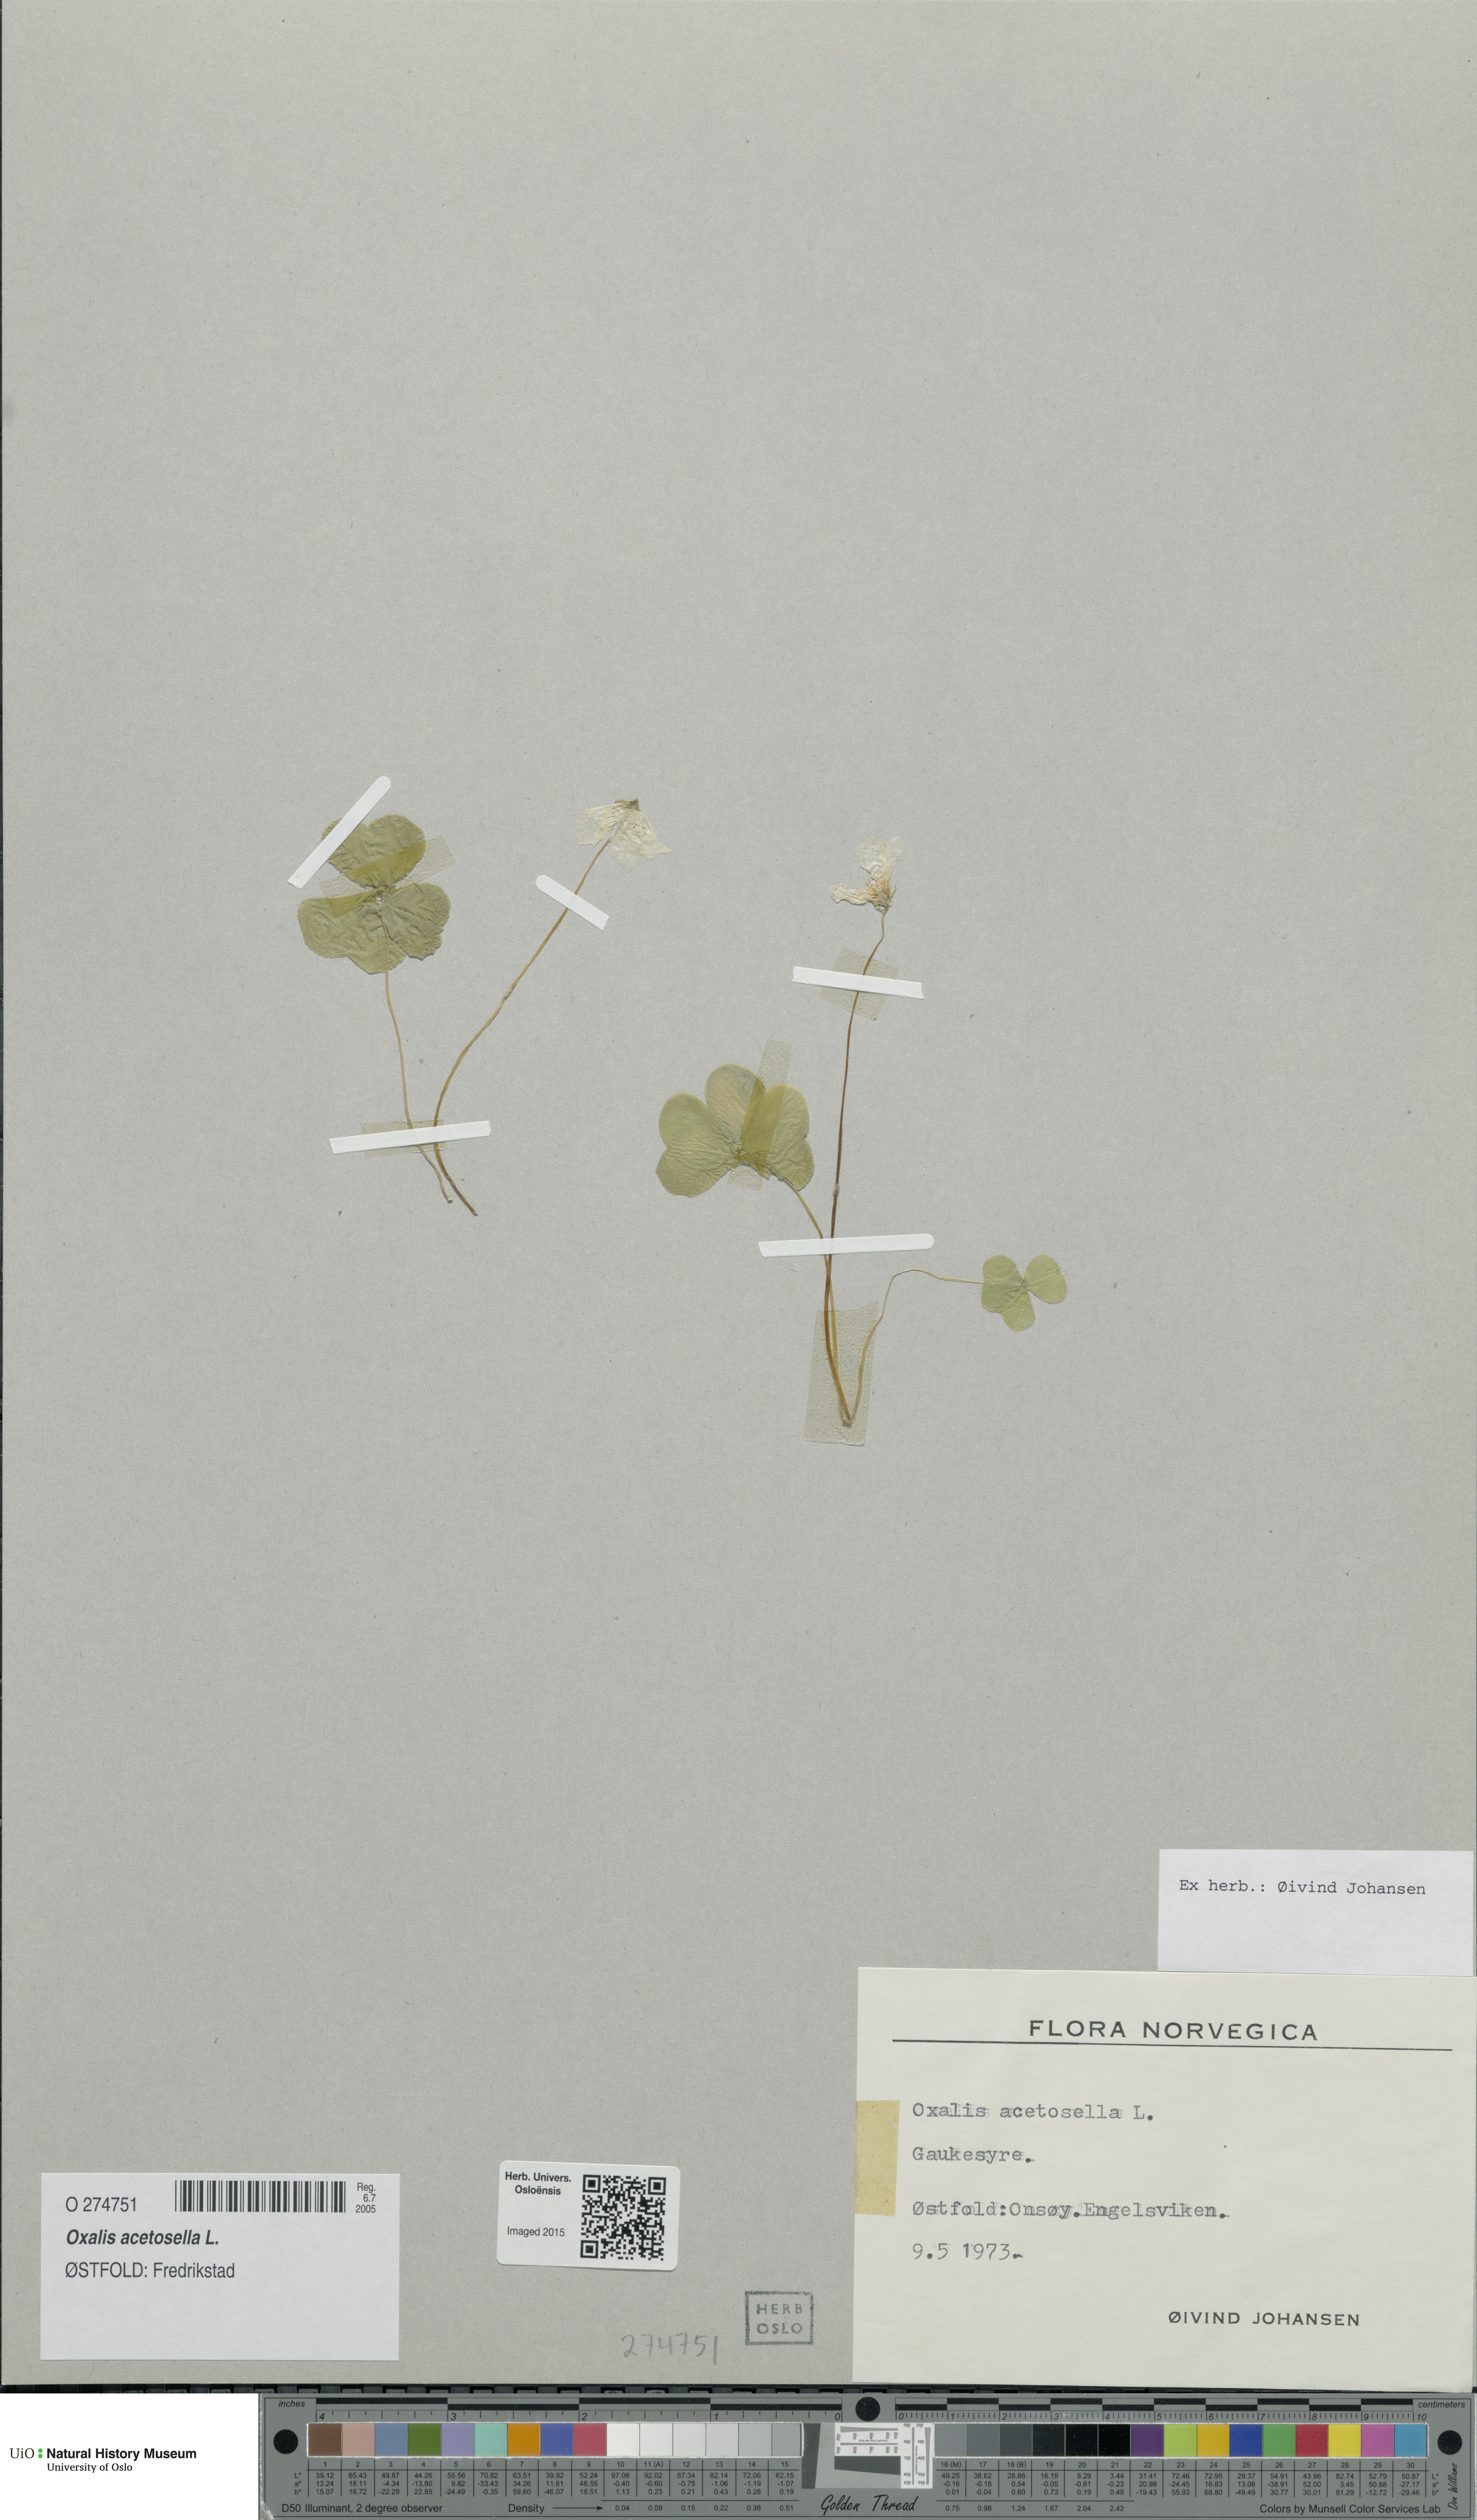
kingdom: Plantae
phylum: Tracheophyta
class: Magnoliopsida
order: Oxalidales
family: Oxalidaceae
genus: Oxalis
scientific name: Oxalis acetosella
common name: Wood-sorrel
